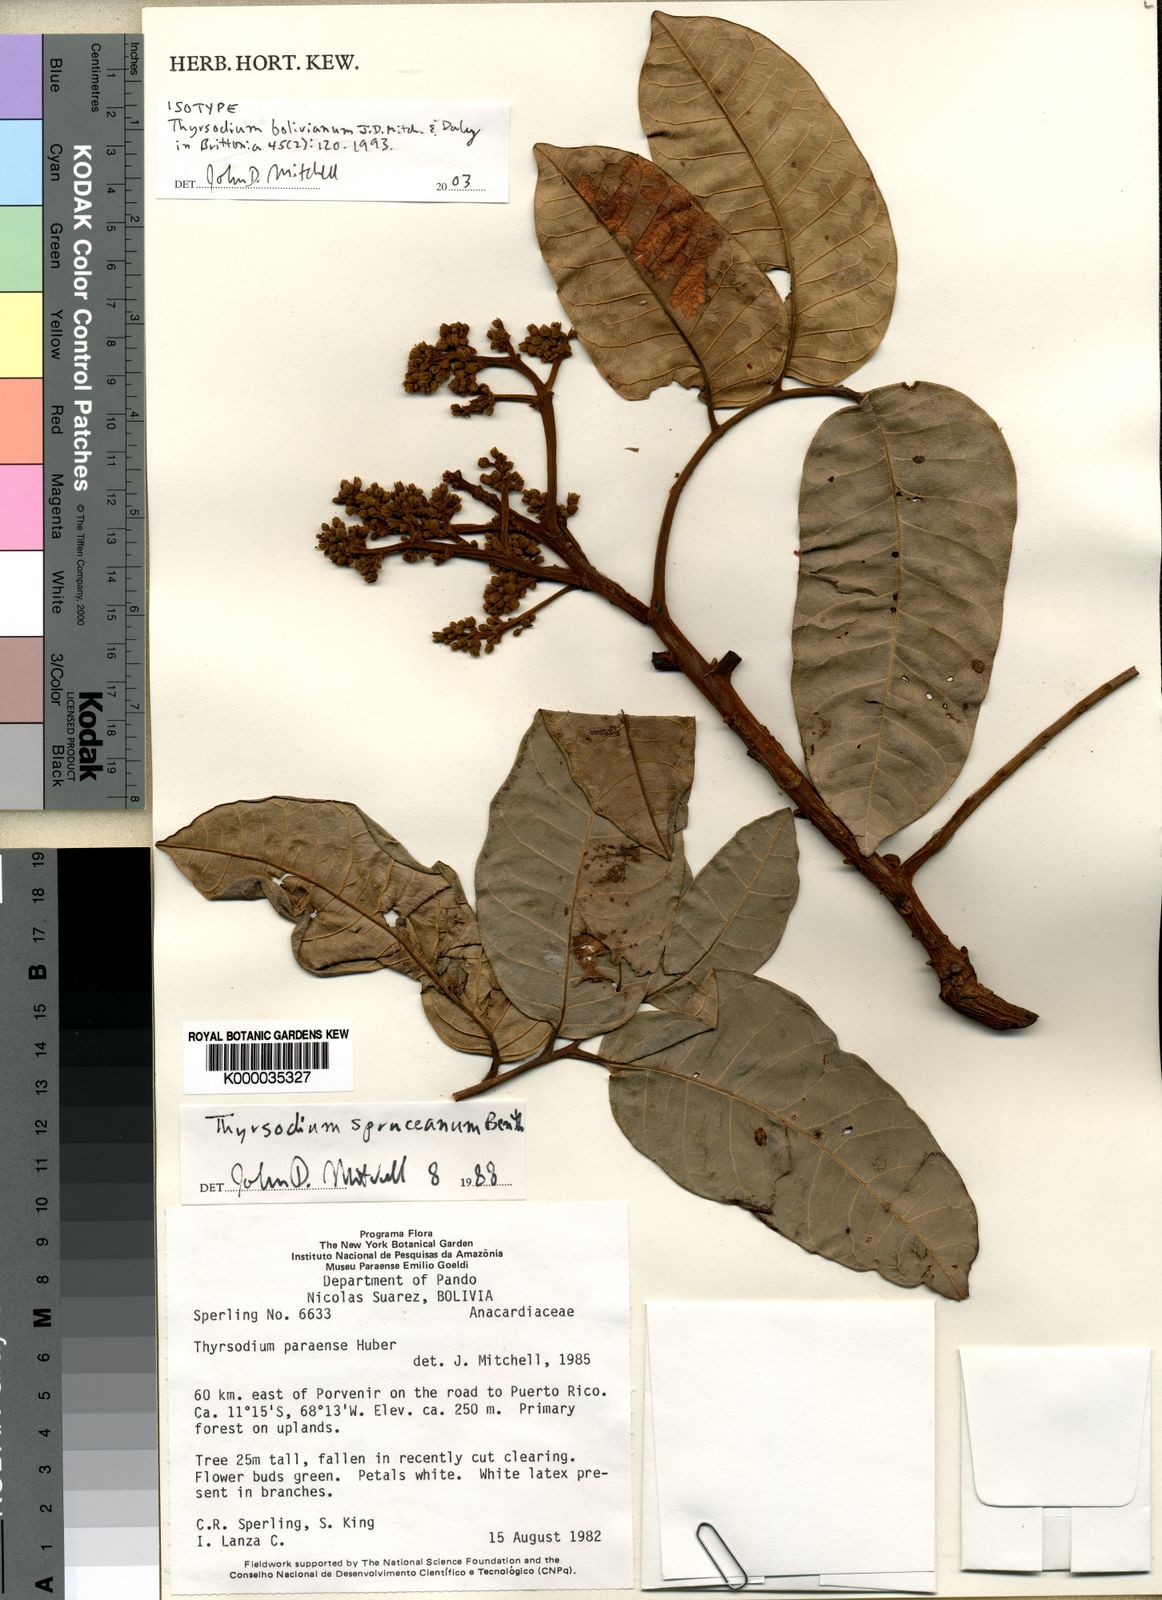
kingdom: Plantae
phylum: Tracheophyta
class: Magnoliopsida
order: Sapindales
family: Anacardiaceae
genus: Thyrsodium
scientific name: Thyrsodium bolivianum
